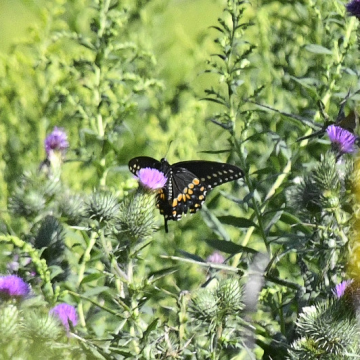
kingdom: Animalia
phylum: Arthropoda
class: Insecta
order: Lepidoptera
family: Papilionidae
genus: Papilio
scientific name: Papilio polyxenes
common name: Black Swallowtail
